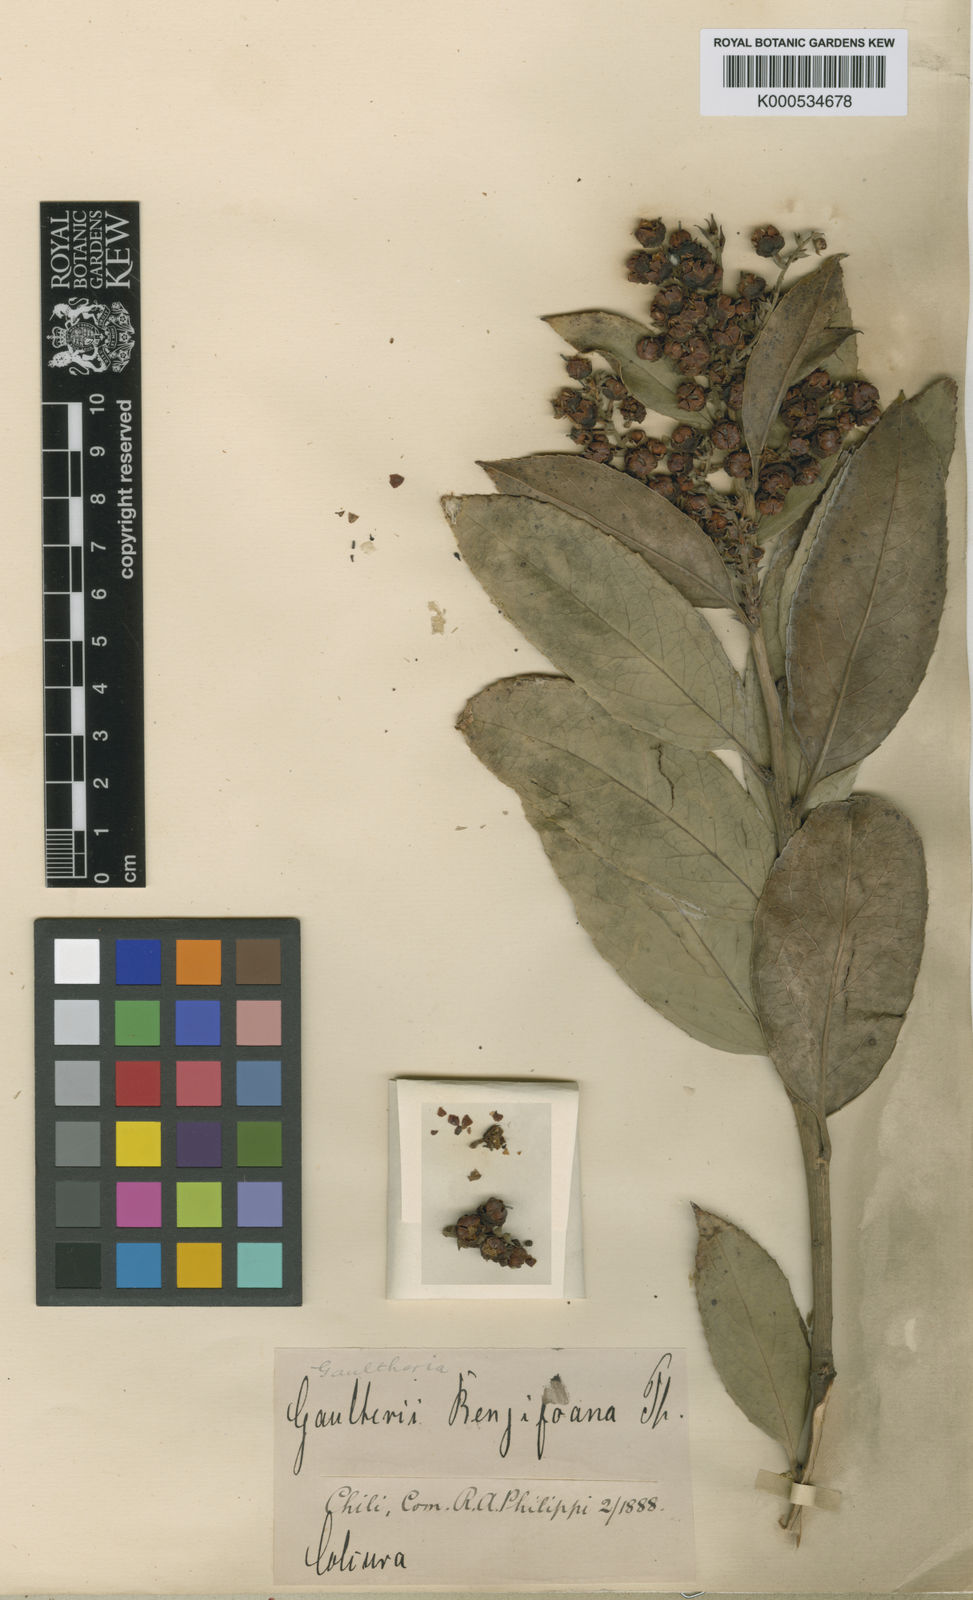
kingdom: Plantae
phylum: Tracheophyta
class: Magnoliopsida
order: Ericales
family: Ericaceae
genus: Gaultheria
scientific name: Gaultheria rengifoana
